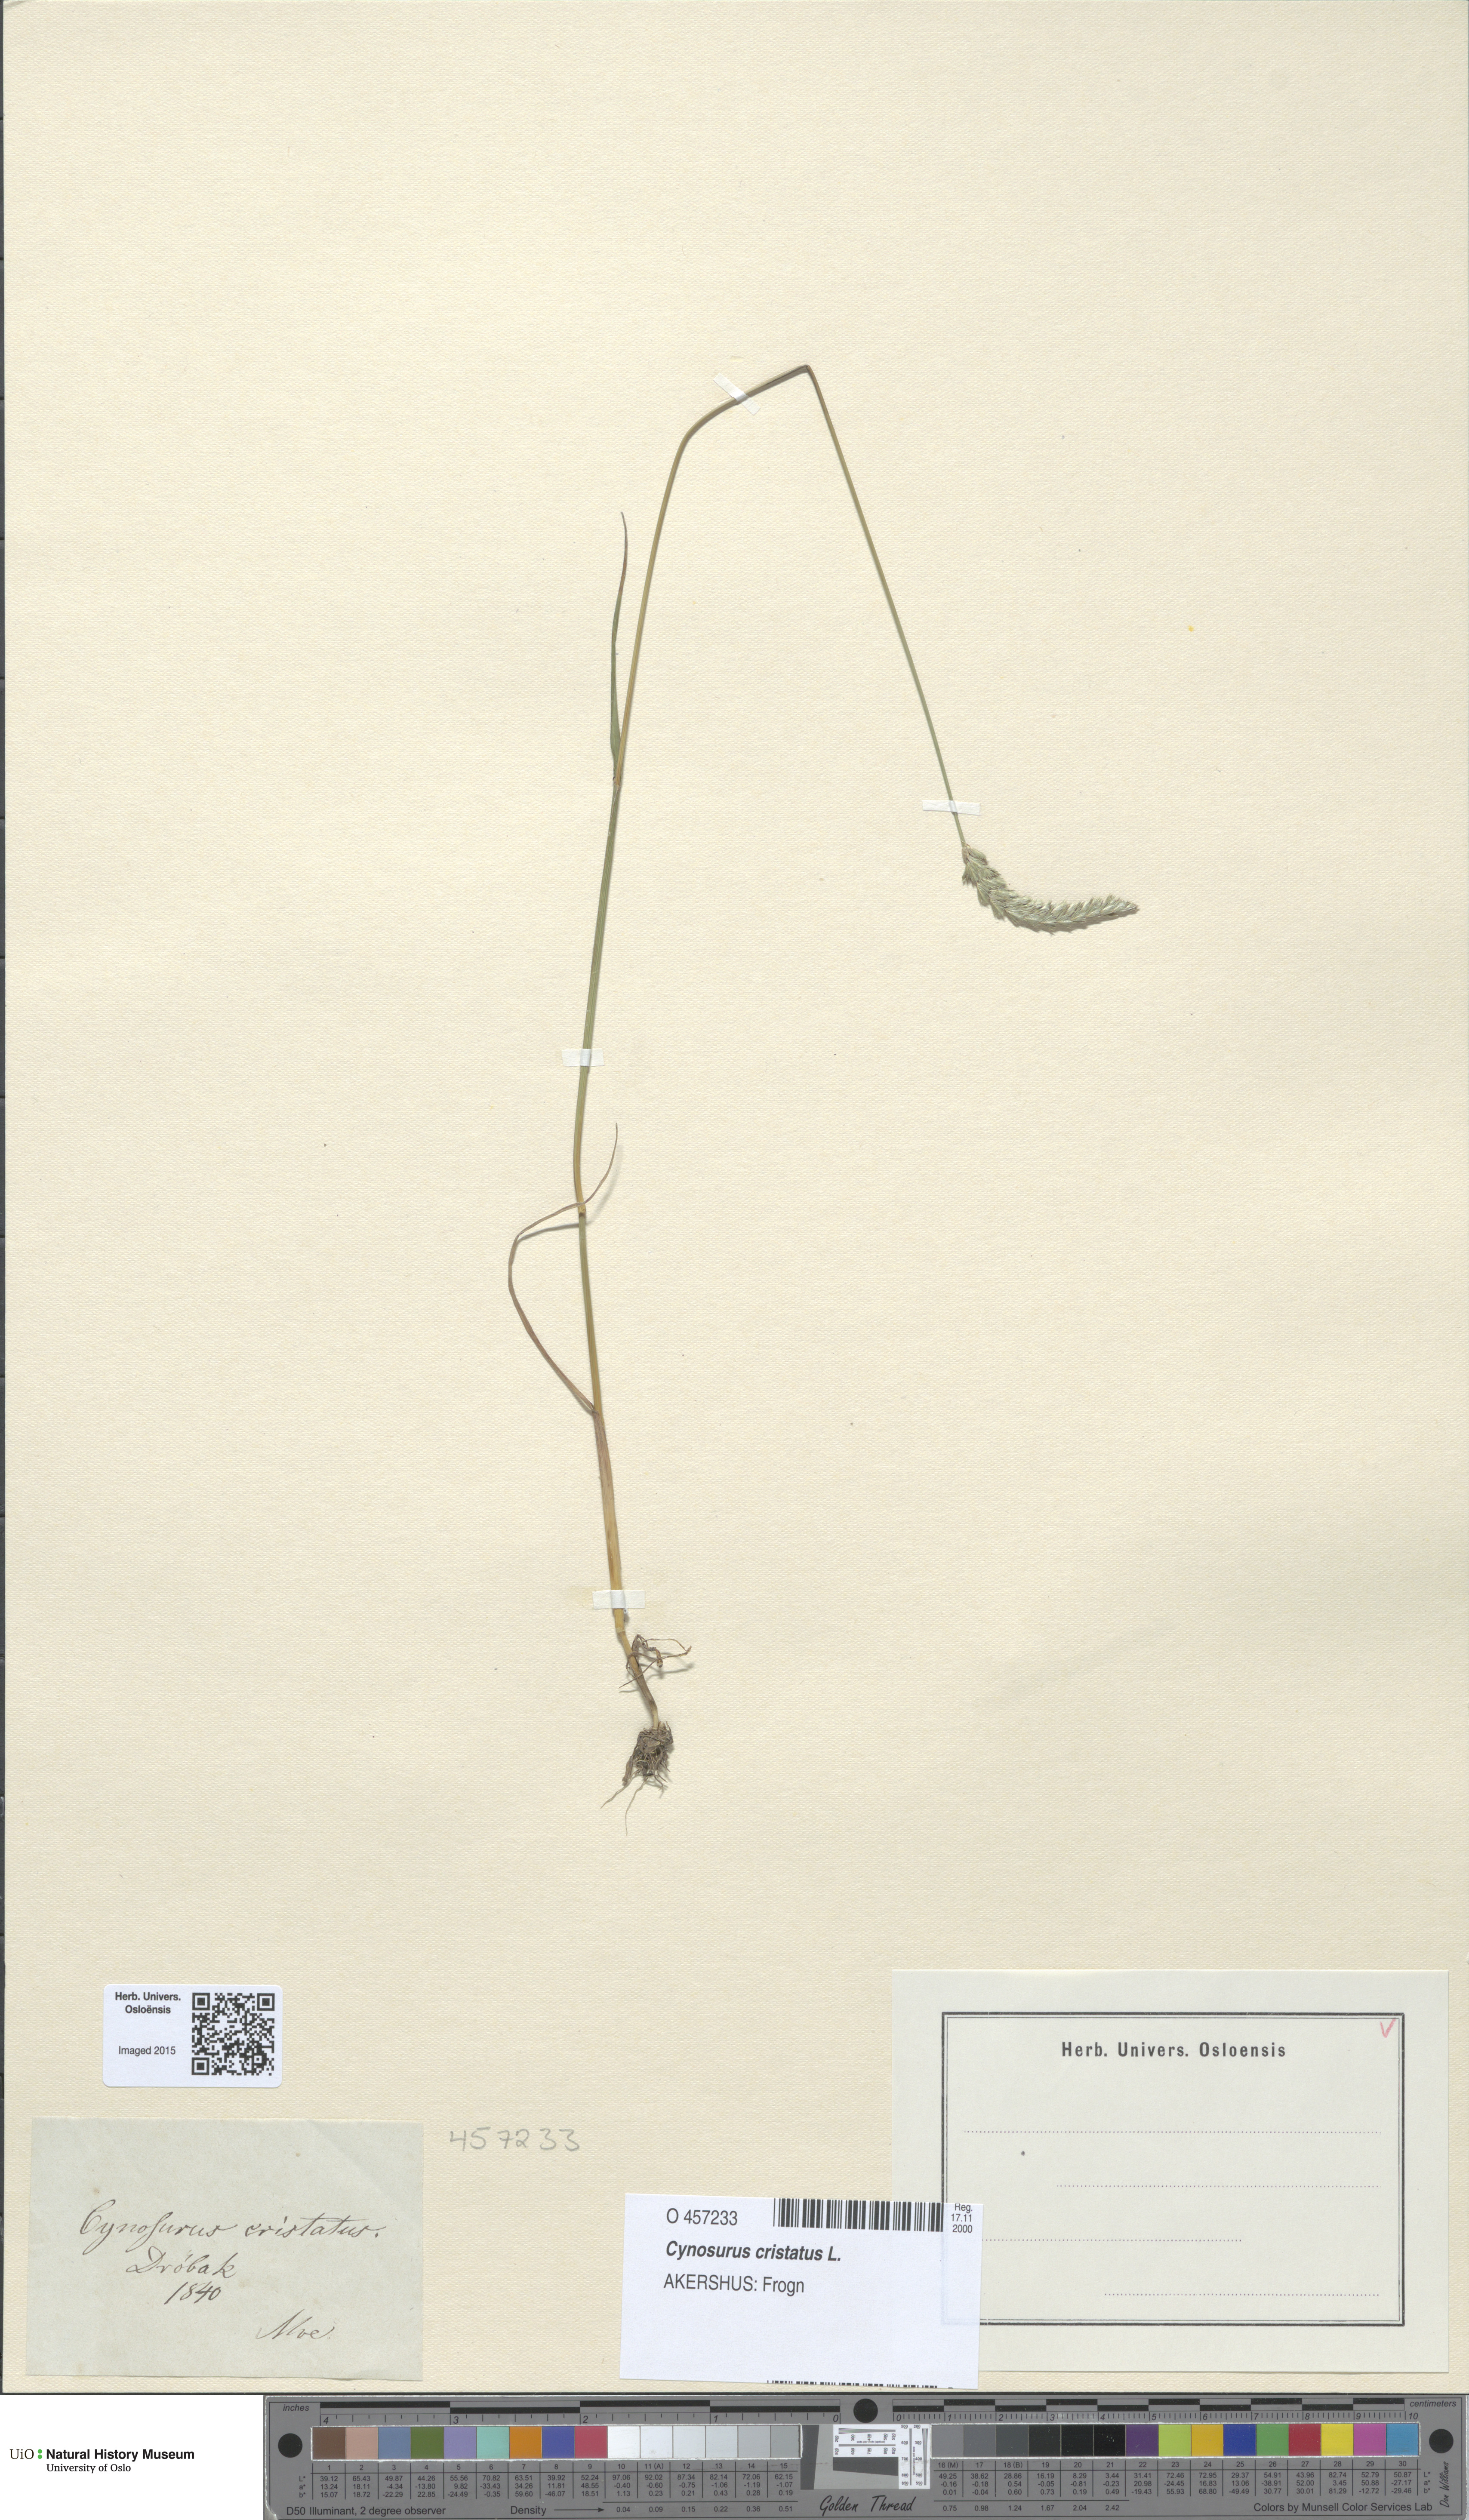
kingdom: Plantae
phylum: Tracheophyta
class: Liliopsida
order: Poales
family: Poaceae
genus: Cynosurus
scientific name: Cynosurus cristatus
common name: Crested dog's-tail
